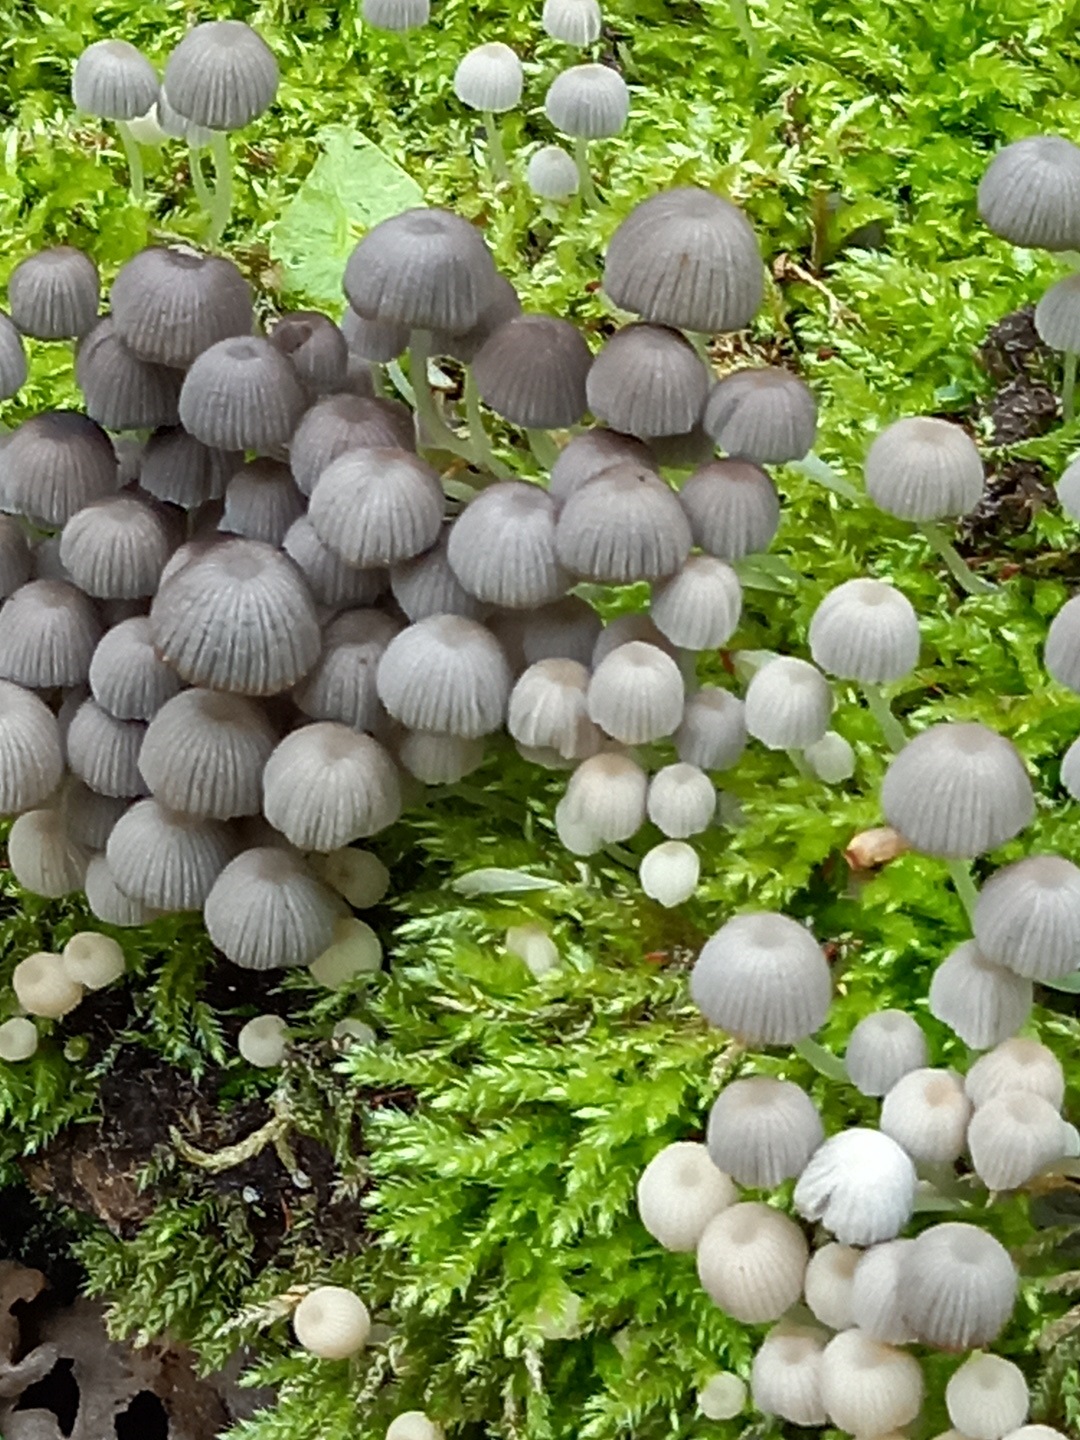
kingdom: Fungi
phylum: Basidiomycota
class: Agaricomycetes
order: Agaricales
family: Psathyrellaceae
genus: Coprinellus
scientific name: Coprinellus disseminatus
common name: bredsået blækhat
